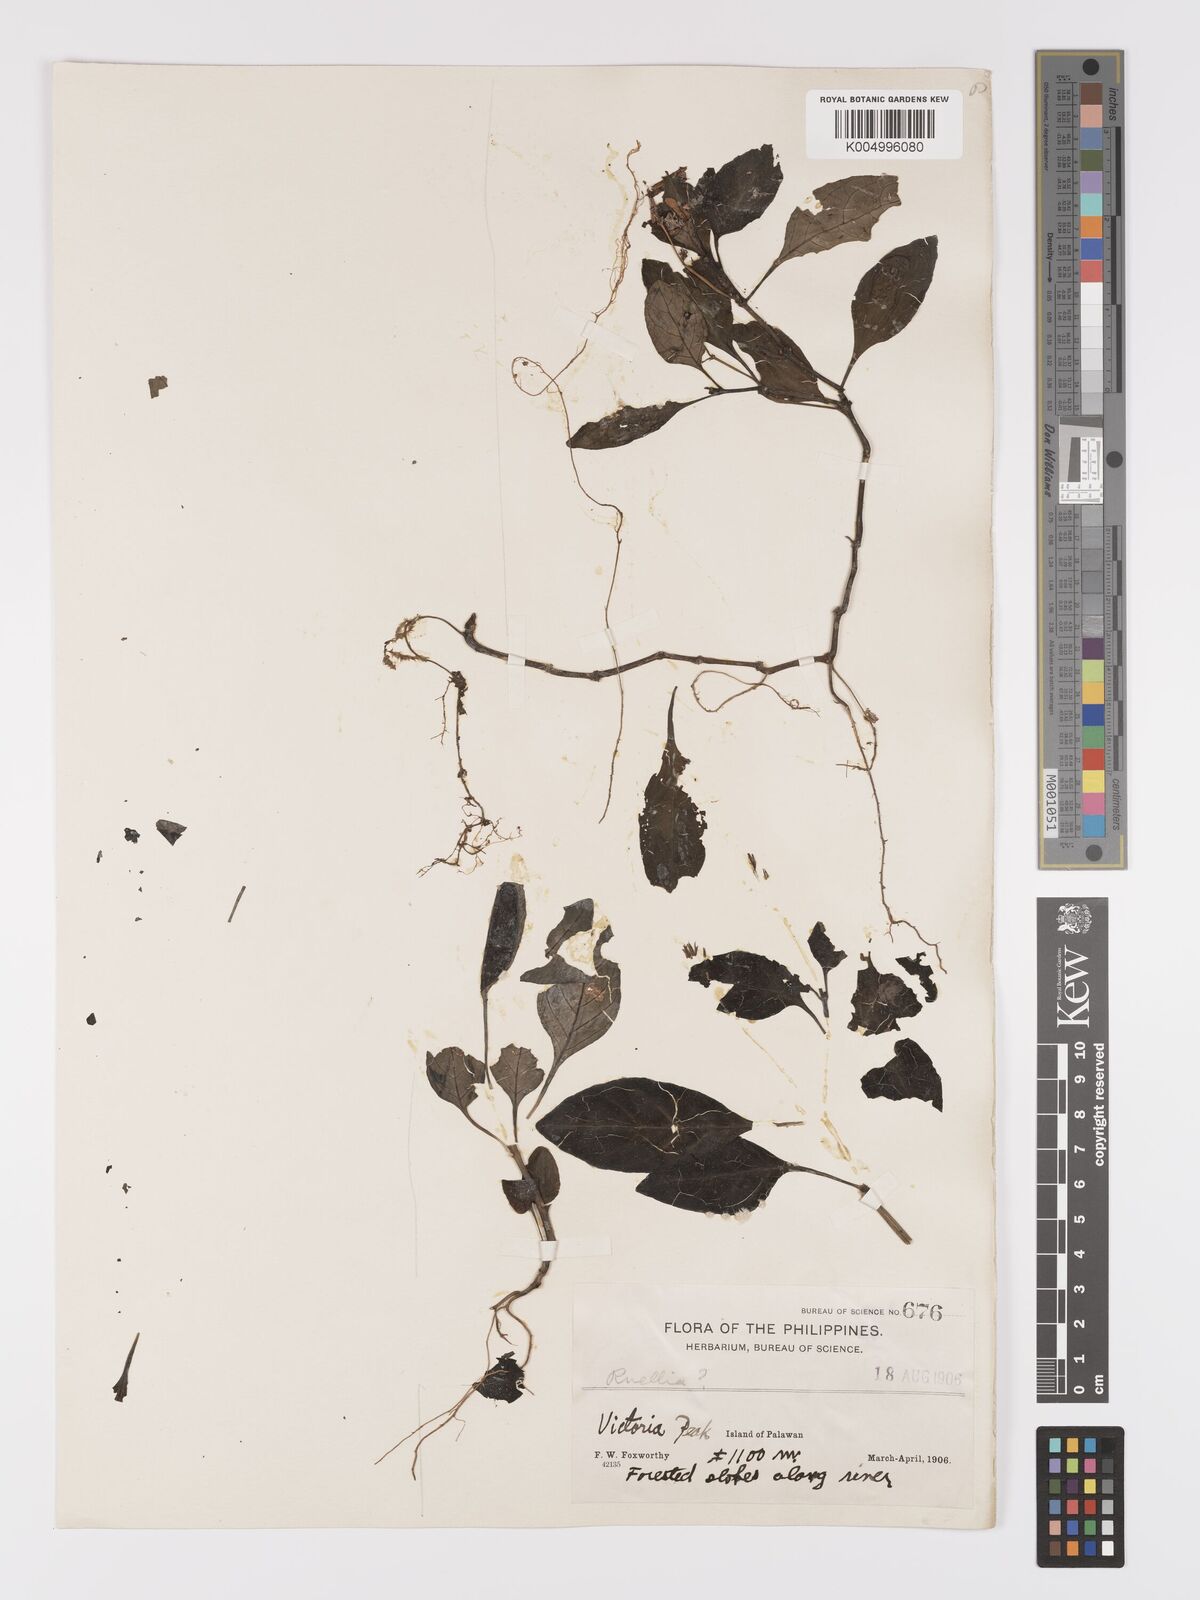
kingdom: Plantae
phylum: Tracheophyta
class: Magnoliopsida
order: Lamiales
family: Acanthaceae
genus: Ruellia
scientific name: Ruellia
